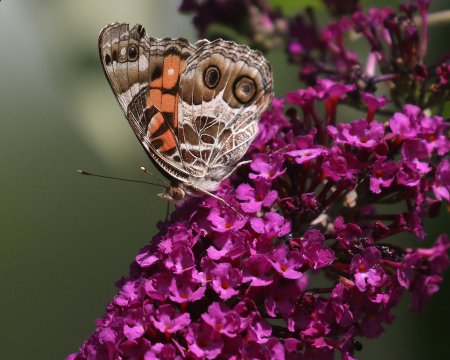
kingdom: Animalia
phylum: Arthropoda
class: Insecta
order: Lepidoptera
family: Nymphalidae
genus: Vanessa
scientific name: Vanessa virginiensis
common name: American Lady
